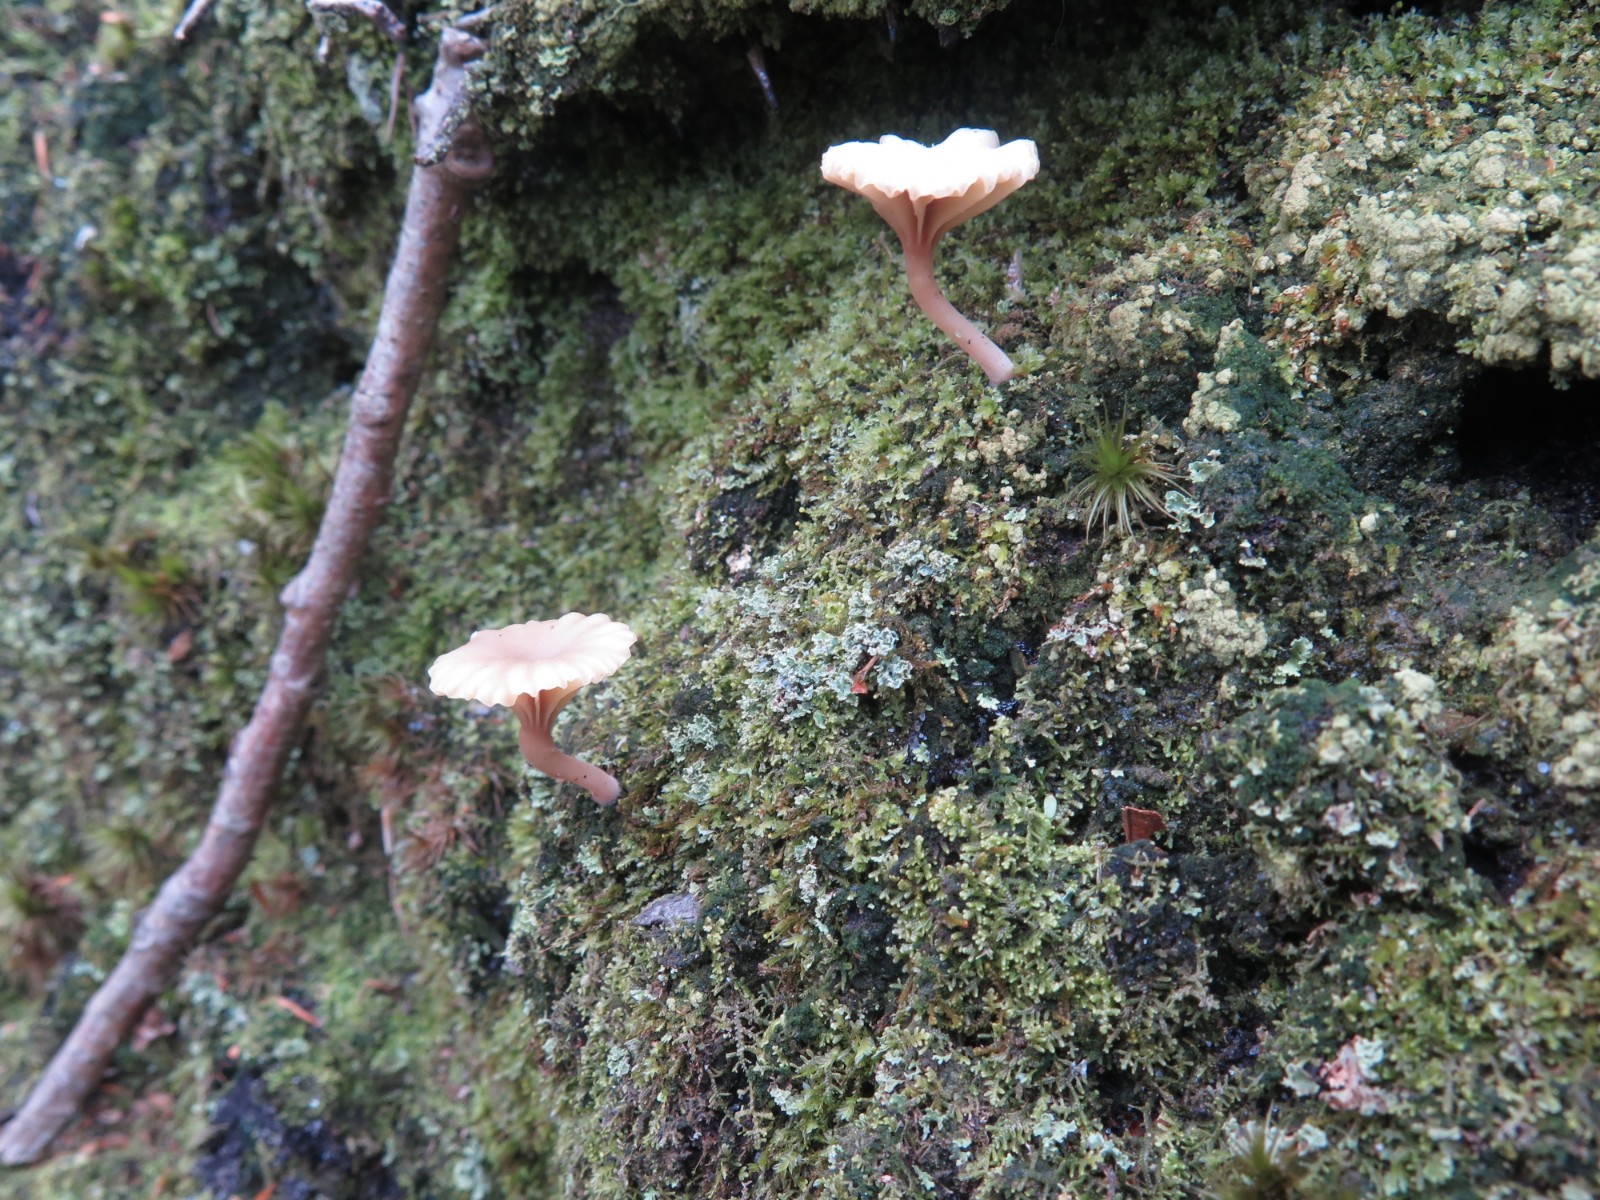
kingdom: Fungi
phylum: Basidiomycota
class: Agaricomycetes
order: Agaricales
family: Hygrophoraceae
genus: Lichenomphalia
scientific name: Lichenomphalia umbellifera
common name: tørve-lavhat
